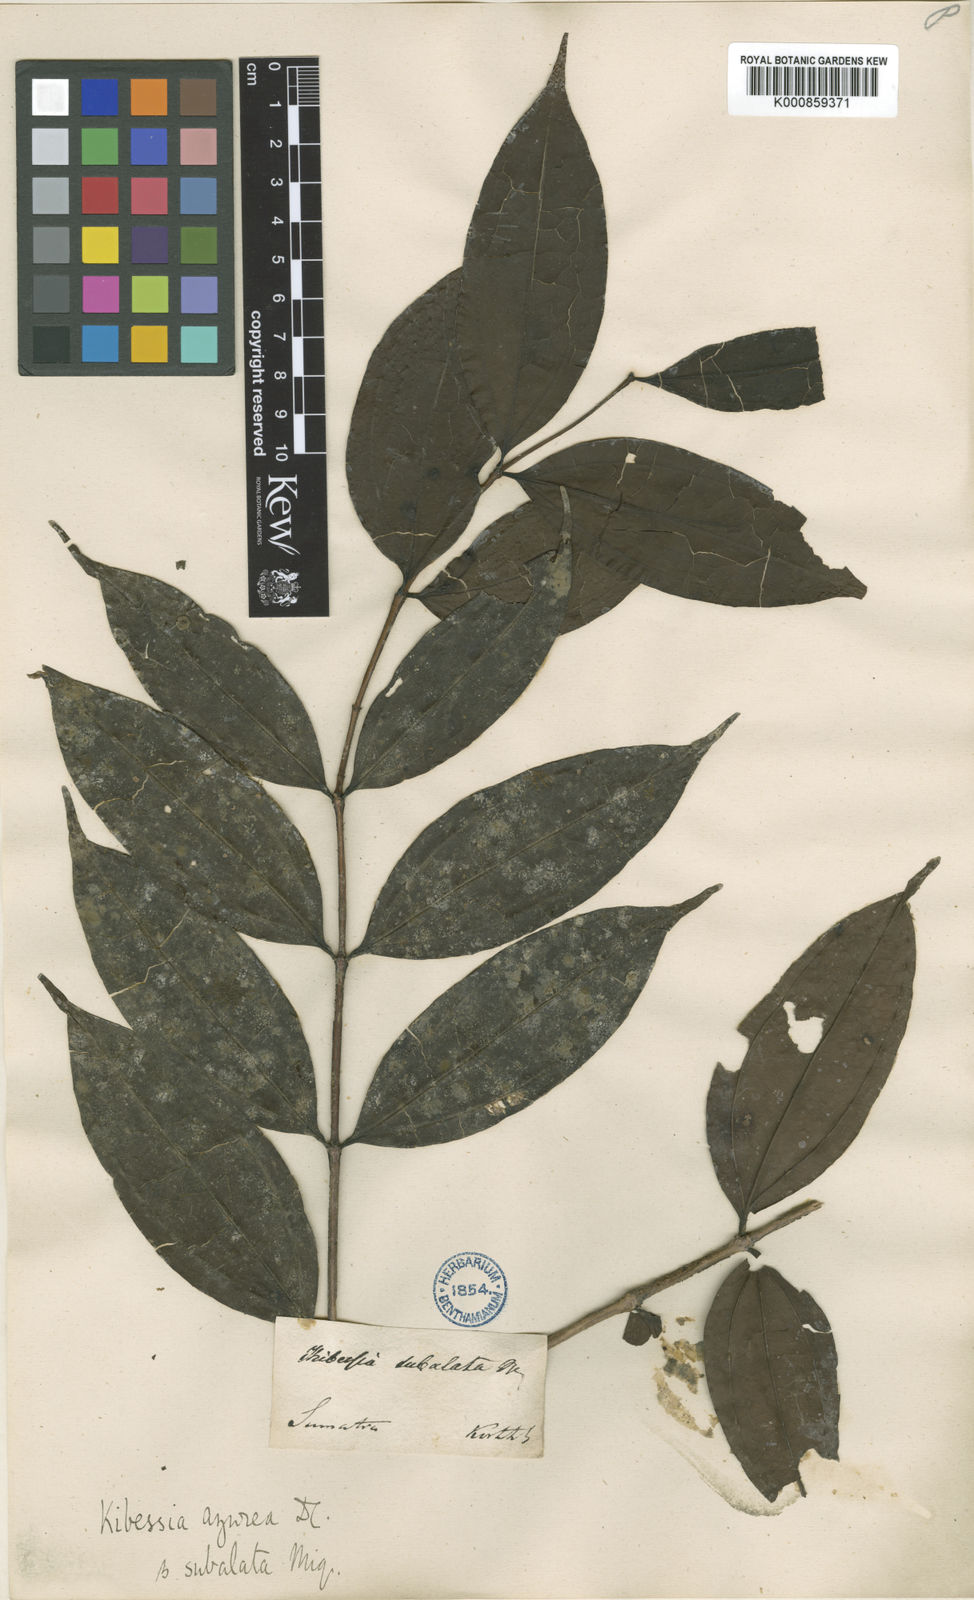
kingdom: Plantae
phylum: Tracheophyta
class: Magnoliopsida
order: Myrtales
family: Melastomataceae
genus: Pternandra
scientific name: Pternandra azurea
